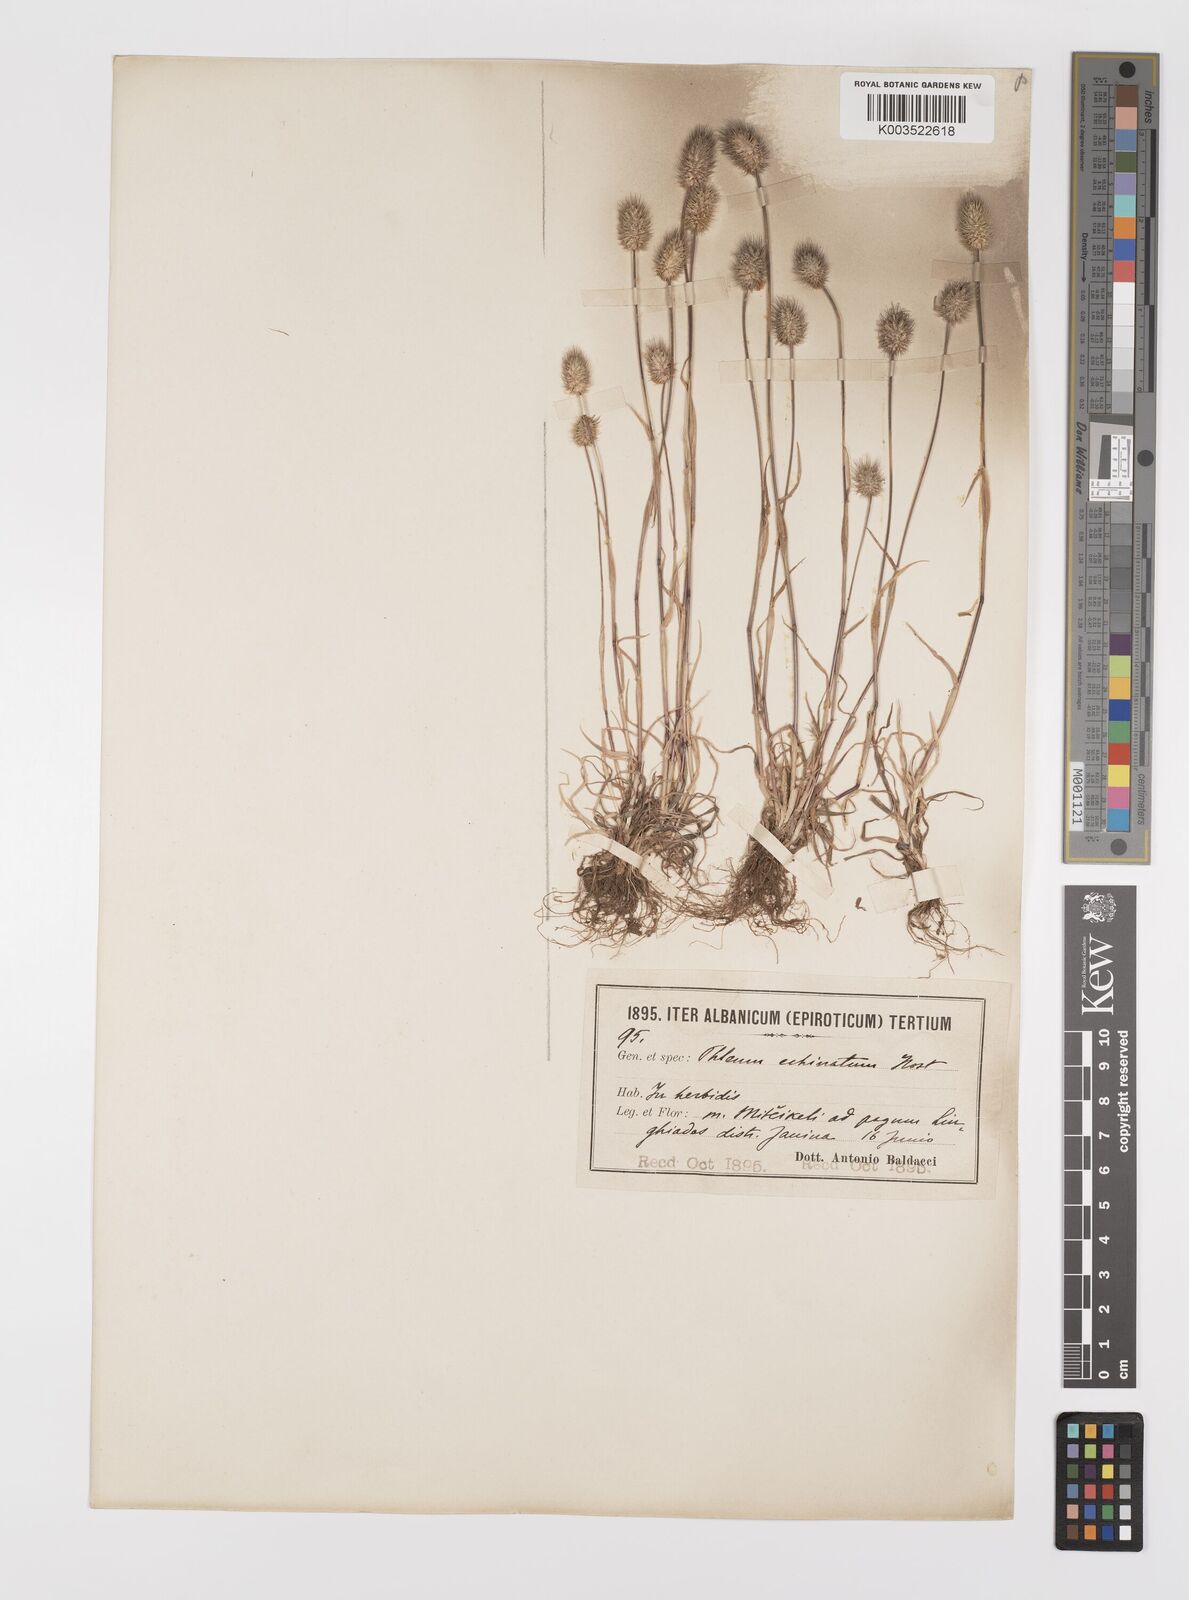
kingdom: Plantae
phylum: Tracheophyta
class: Liliopsida
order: Poales
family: Poaceae
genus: Phleum
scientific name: Phleum echinatum
